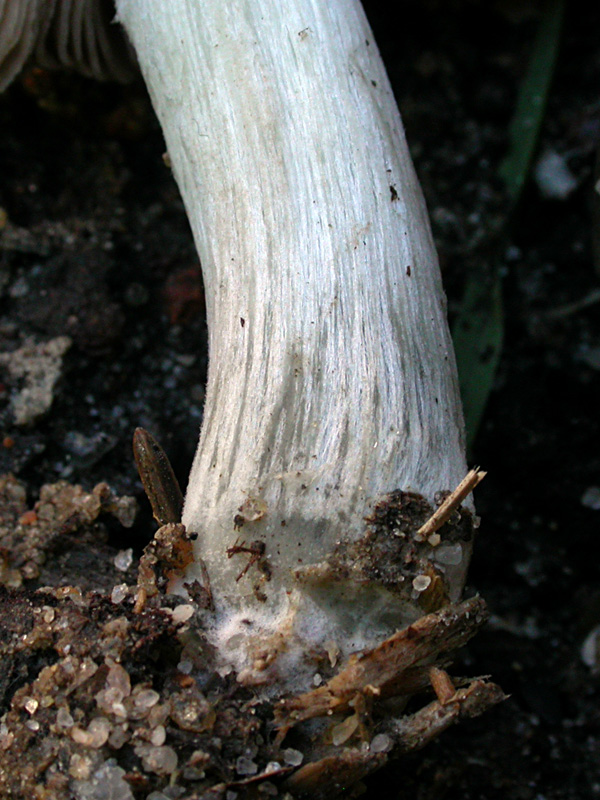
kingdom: Fungi
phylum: Basidiomycota
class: Agaricomycetes
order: Agaricales
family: Pluteaceae
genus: Pluteus
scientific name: Pluteus chrysophaeus
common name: blåfodet skærmhat
